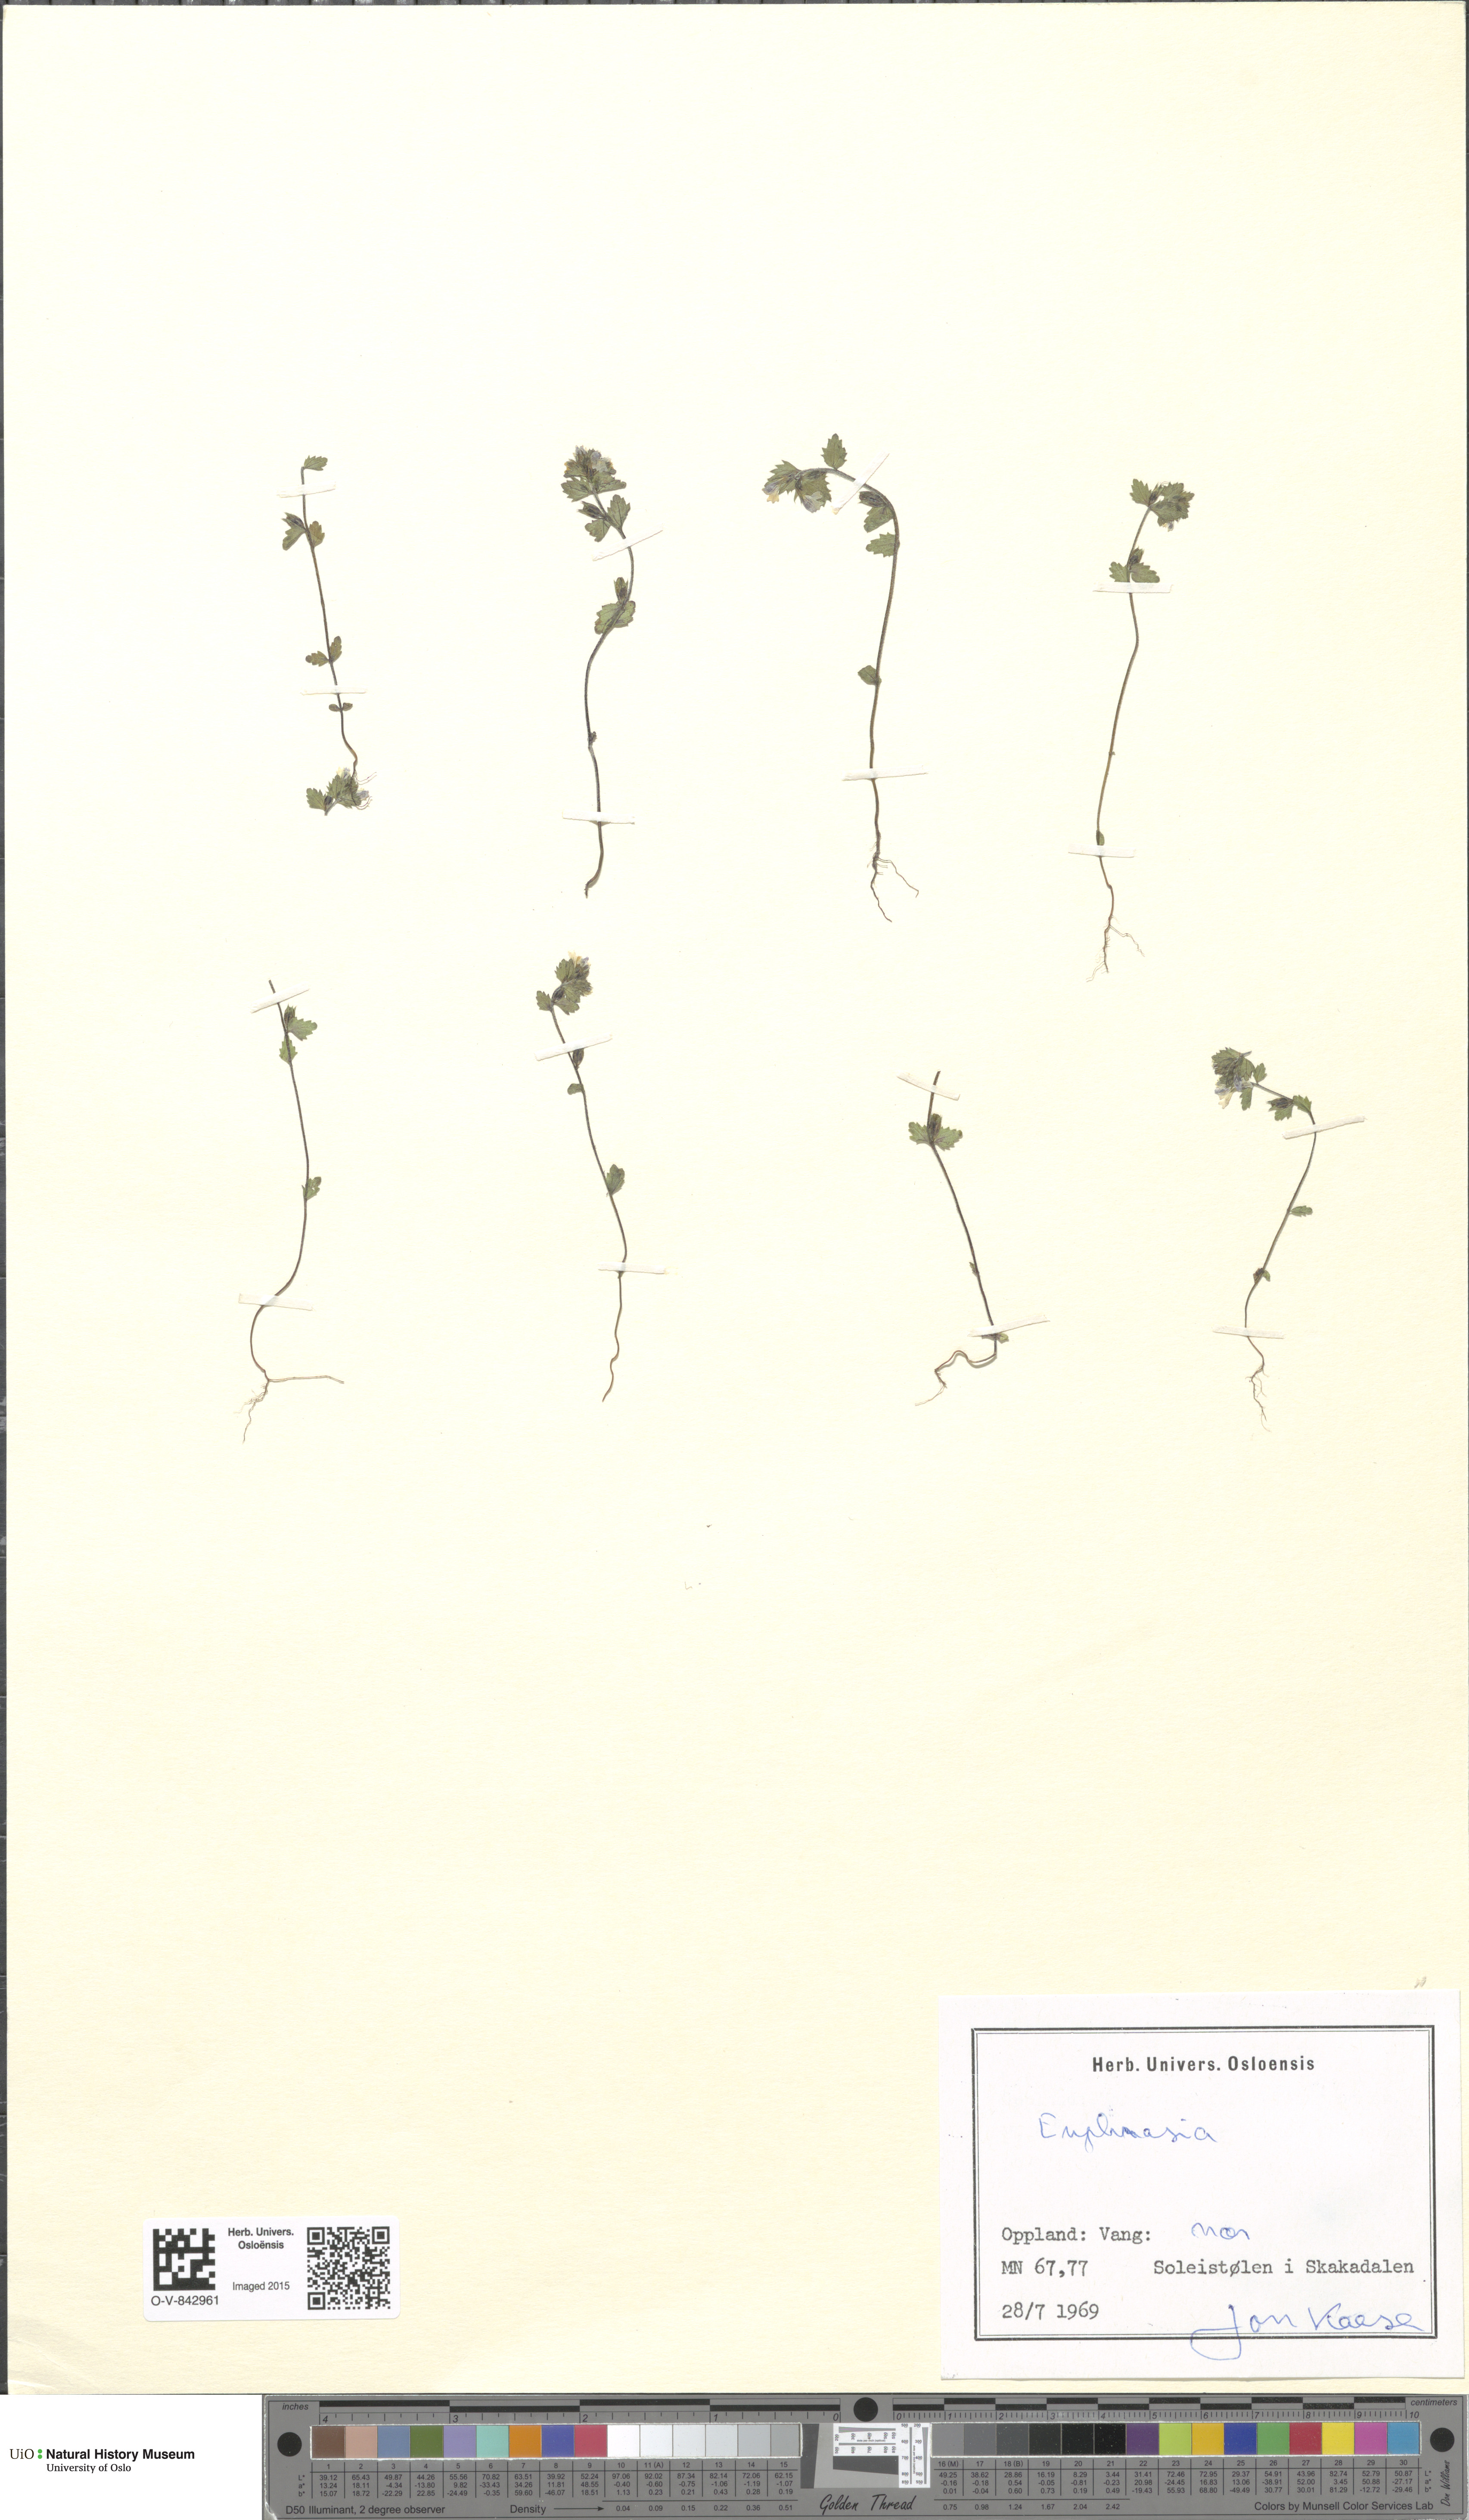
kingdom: Plantae
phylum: Tracheophyta
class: Magnoliopsida
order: Lamiales
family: Orobanchaceae
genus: Euphrasia
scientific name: Euphrasia
